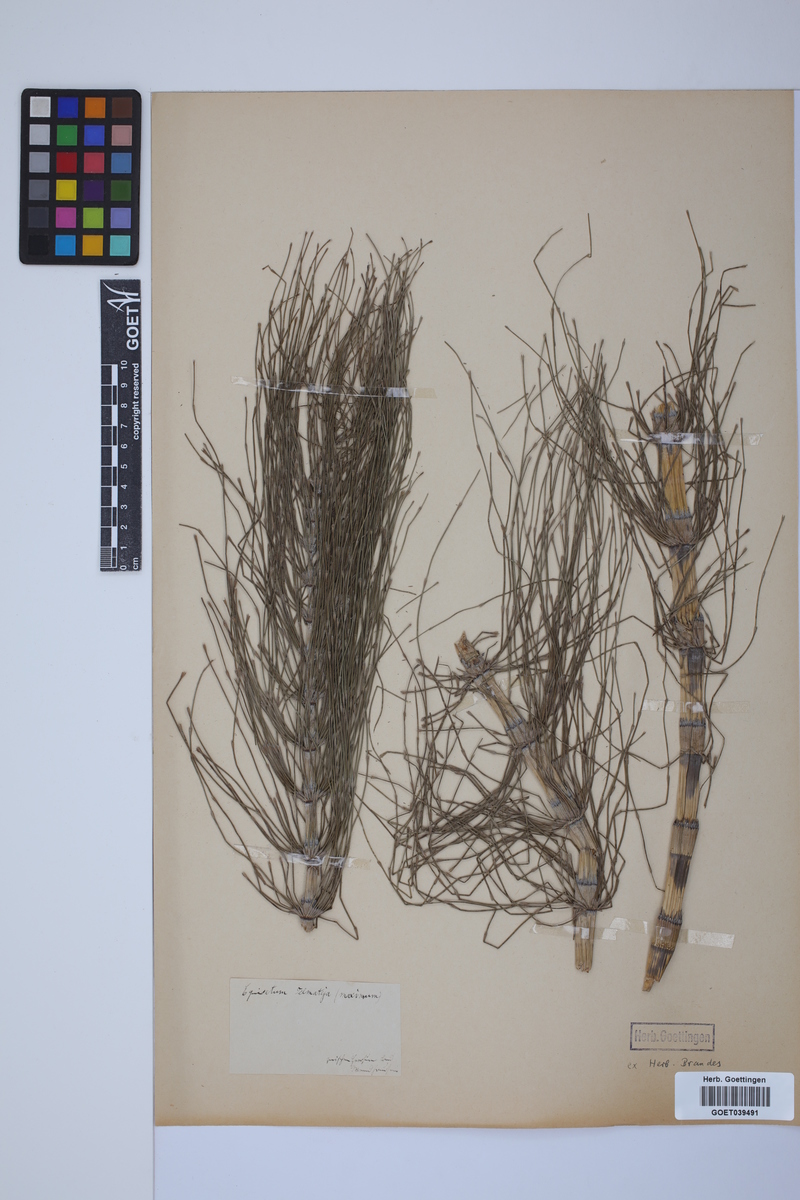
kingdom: Plantae
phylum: Tracheophyta
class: Polypodiopsida
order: Equisetales
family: Equisetaceae
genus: Equisetum
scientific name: Equisetum telmateia
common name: Great horsetail
